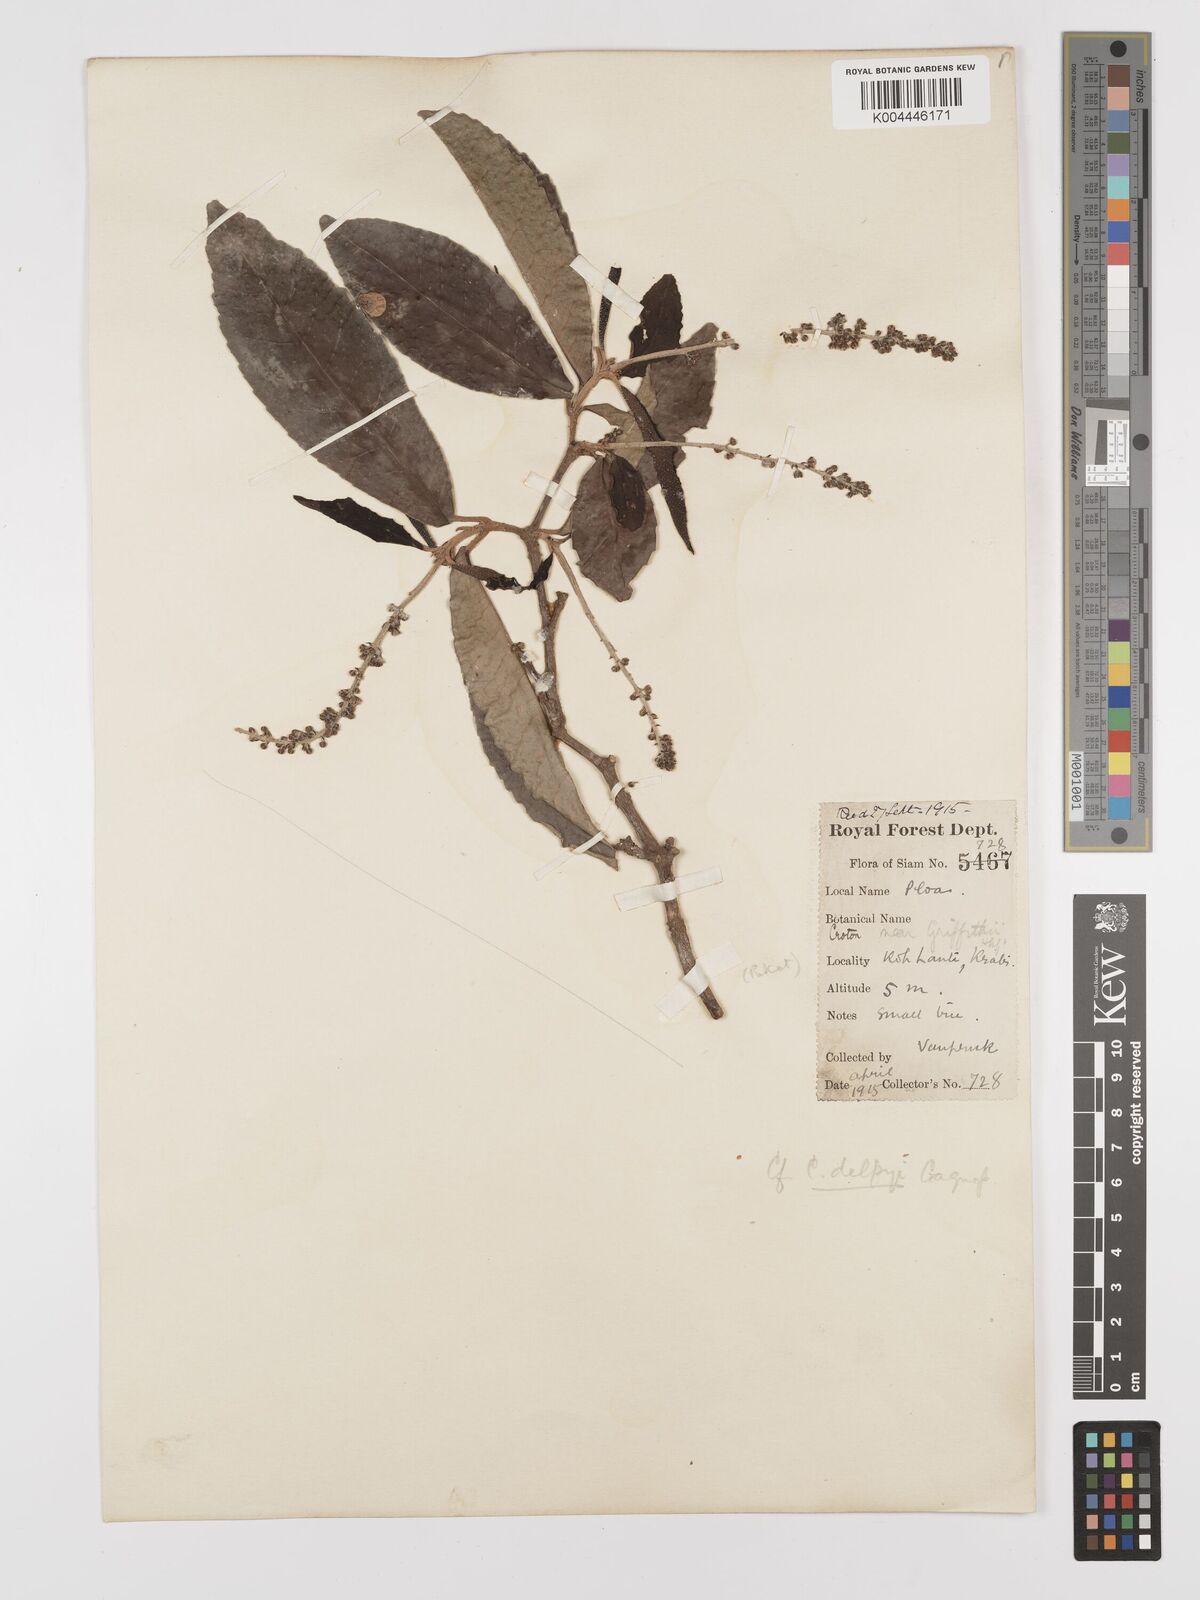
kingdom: Plantae
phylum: Tracheophyta
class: Magnoliopsida
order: Malpighiales
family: Euphorbiaceae
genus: Croton
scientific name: Croton delpyi
